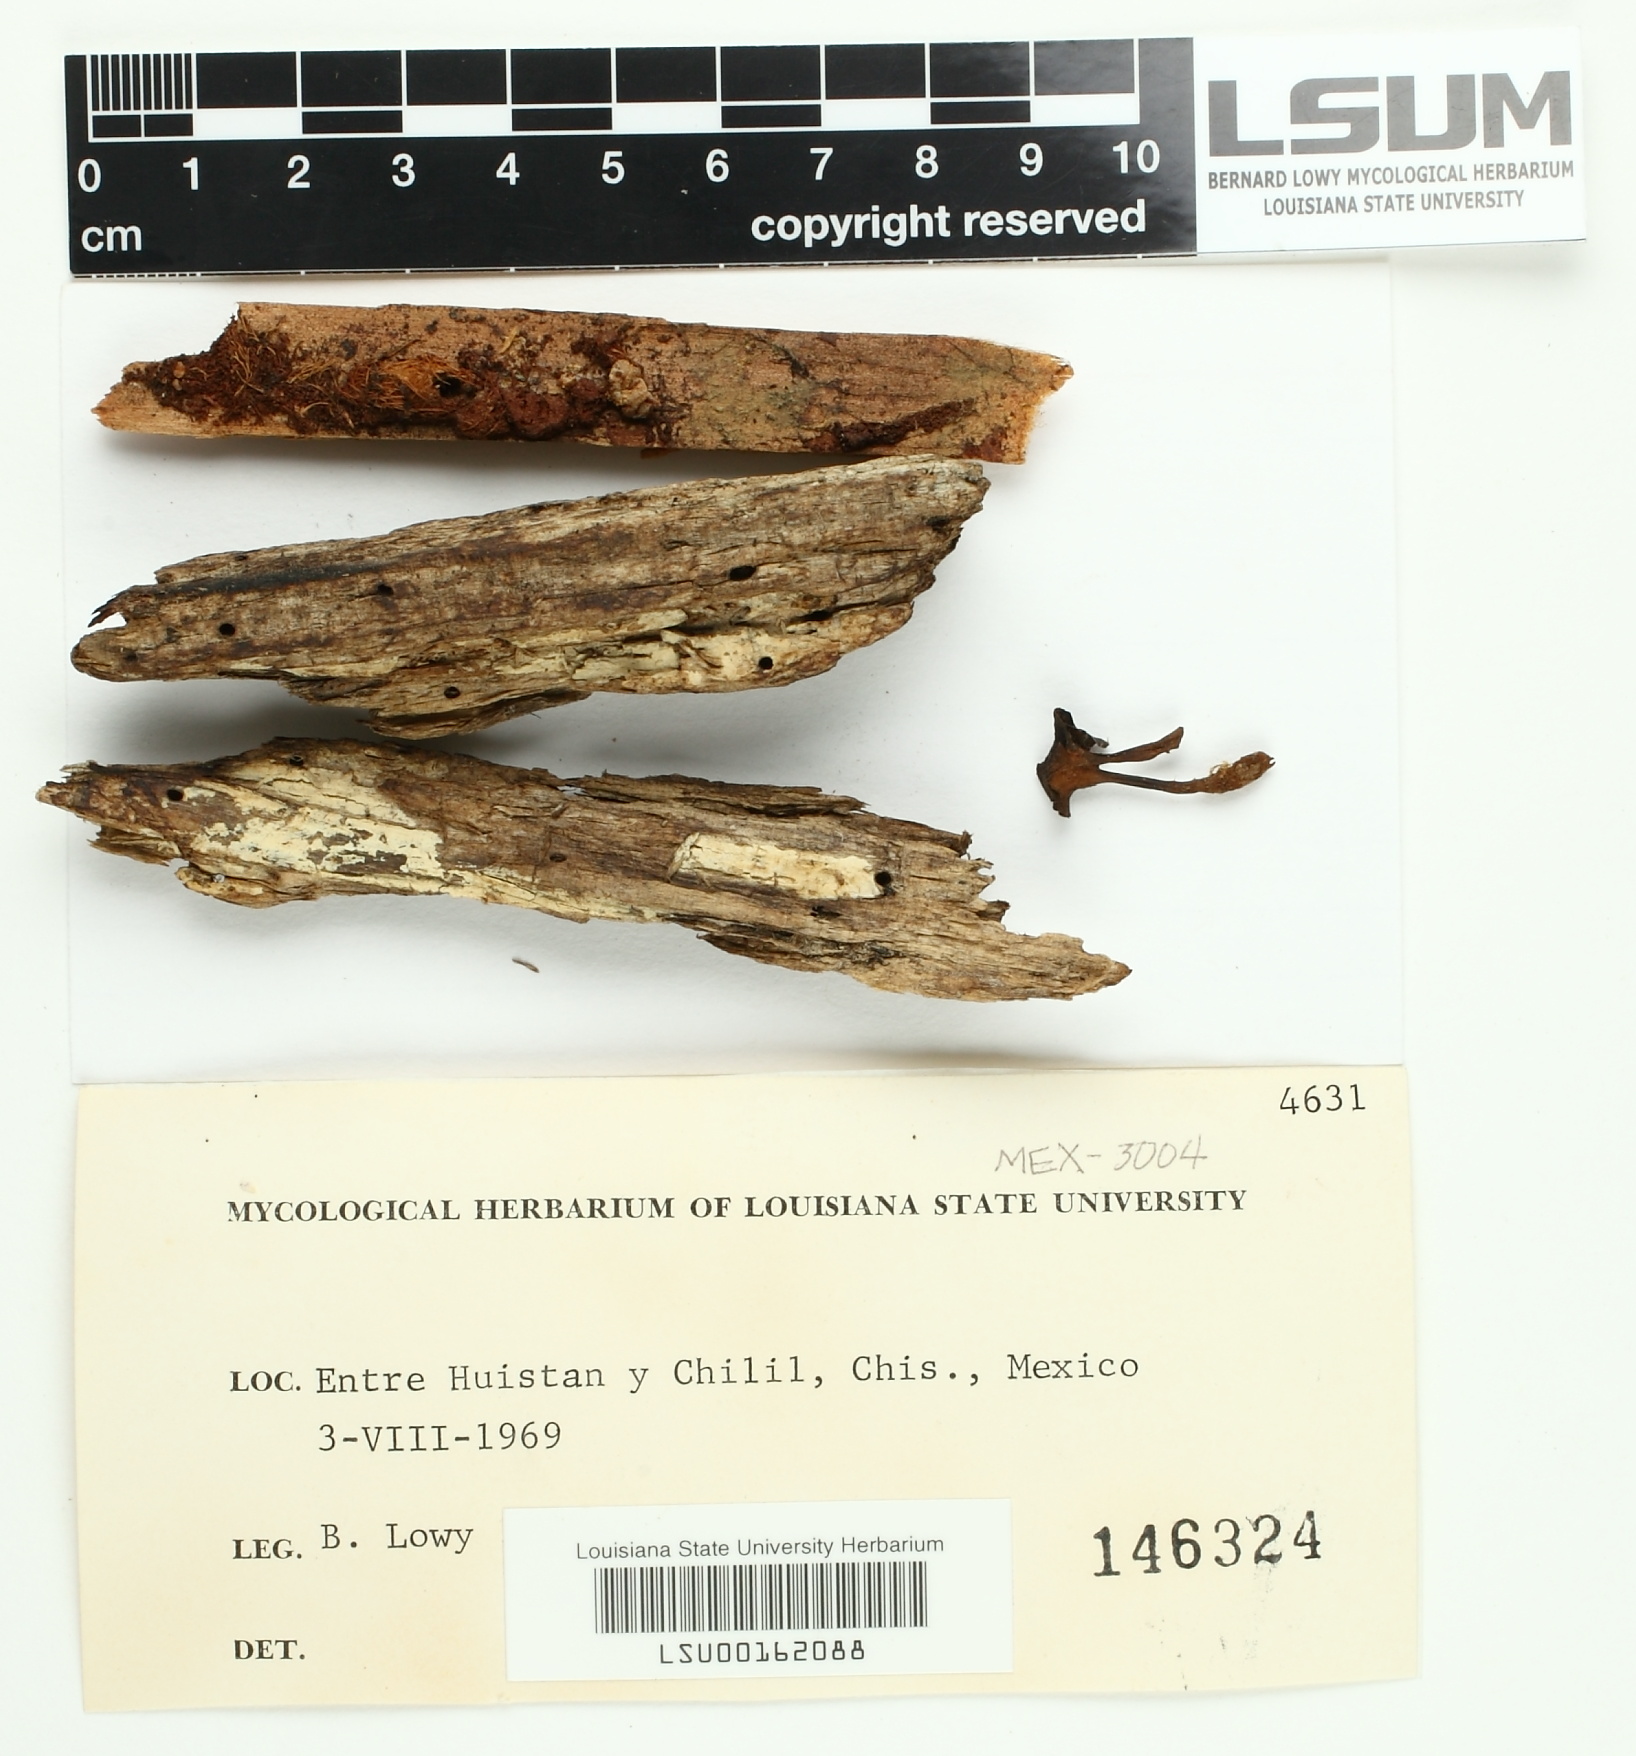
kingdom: Fungi
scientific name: Fungi
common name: Fungi
